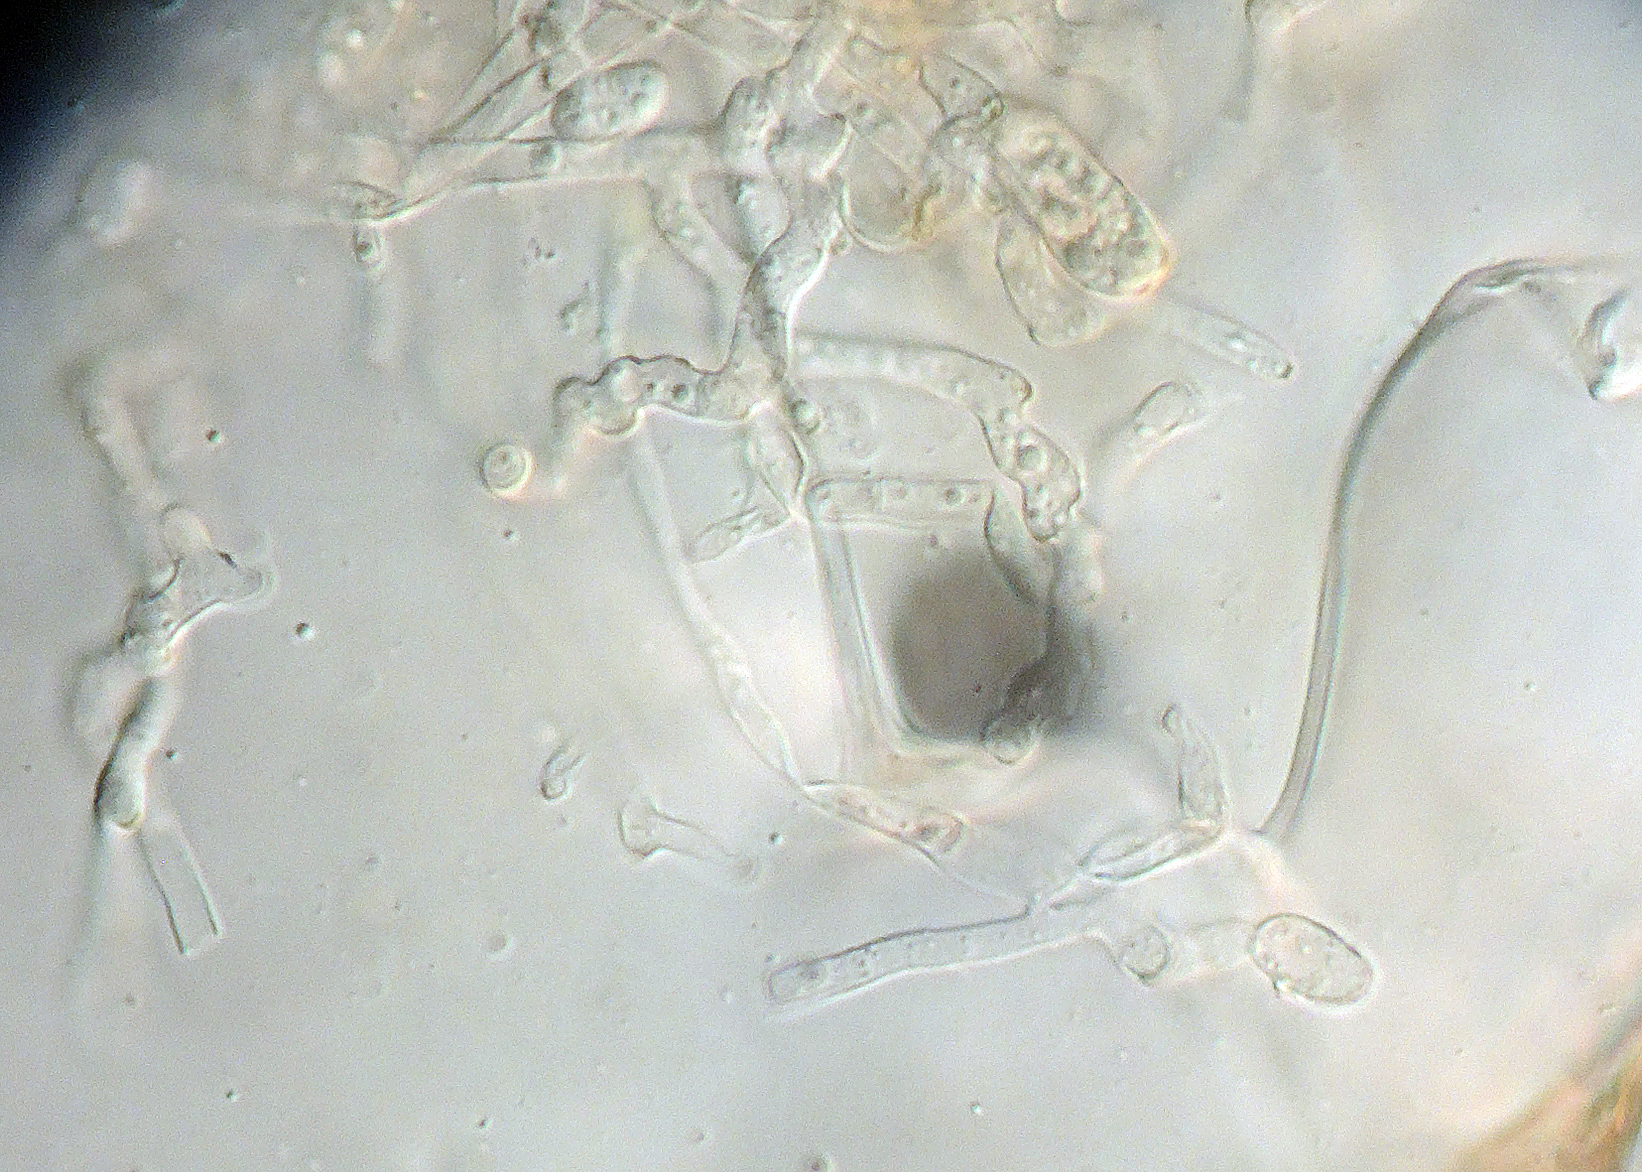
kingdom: Fungi
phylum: Ascomycota
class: Dothideomycetes
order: Mycosphaerellales
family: Mycosphaerellaceae
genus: Ramularia
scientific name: Ramularia interstitialis
